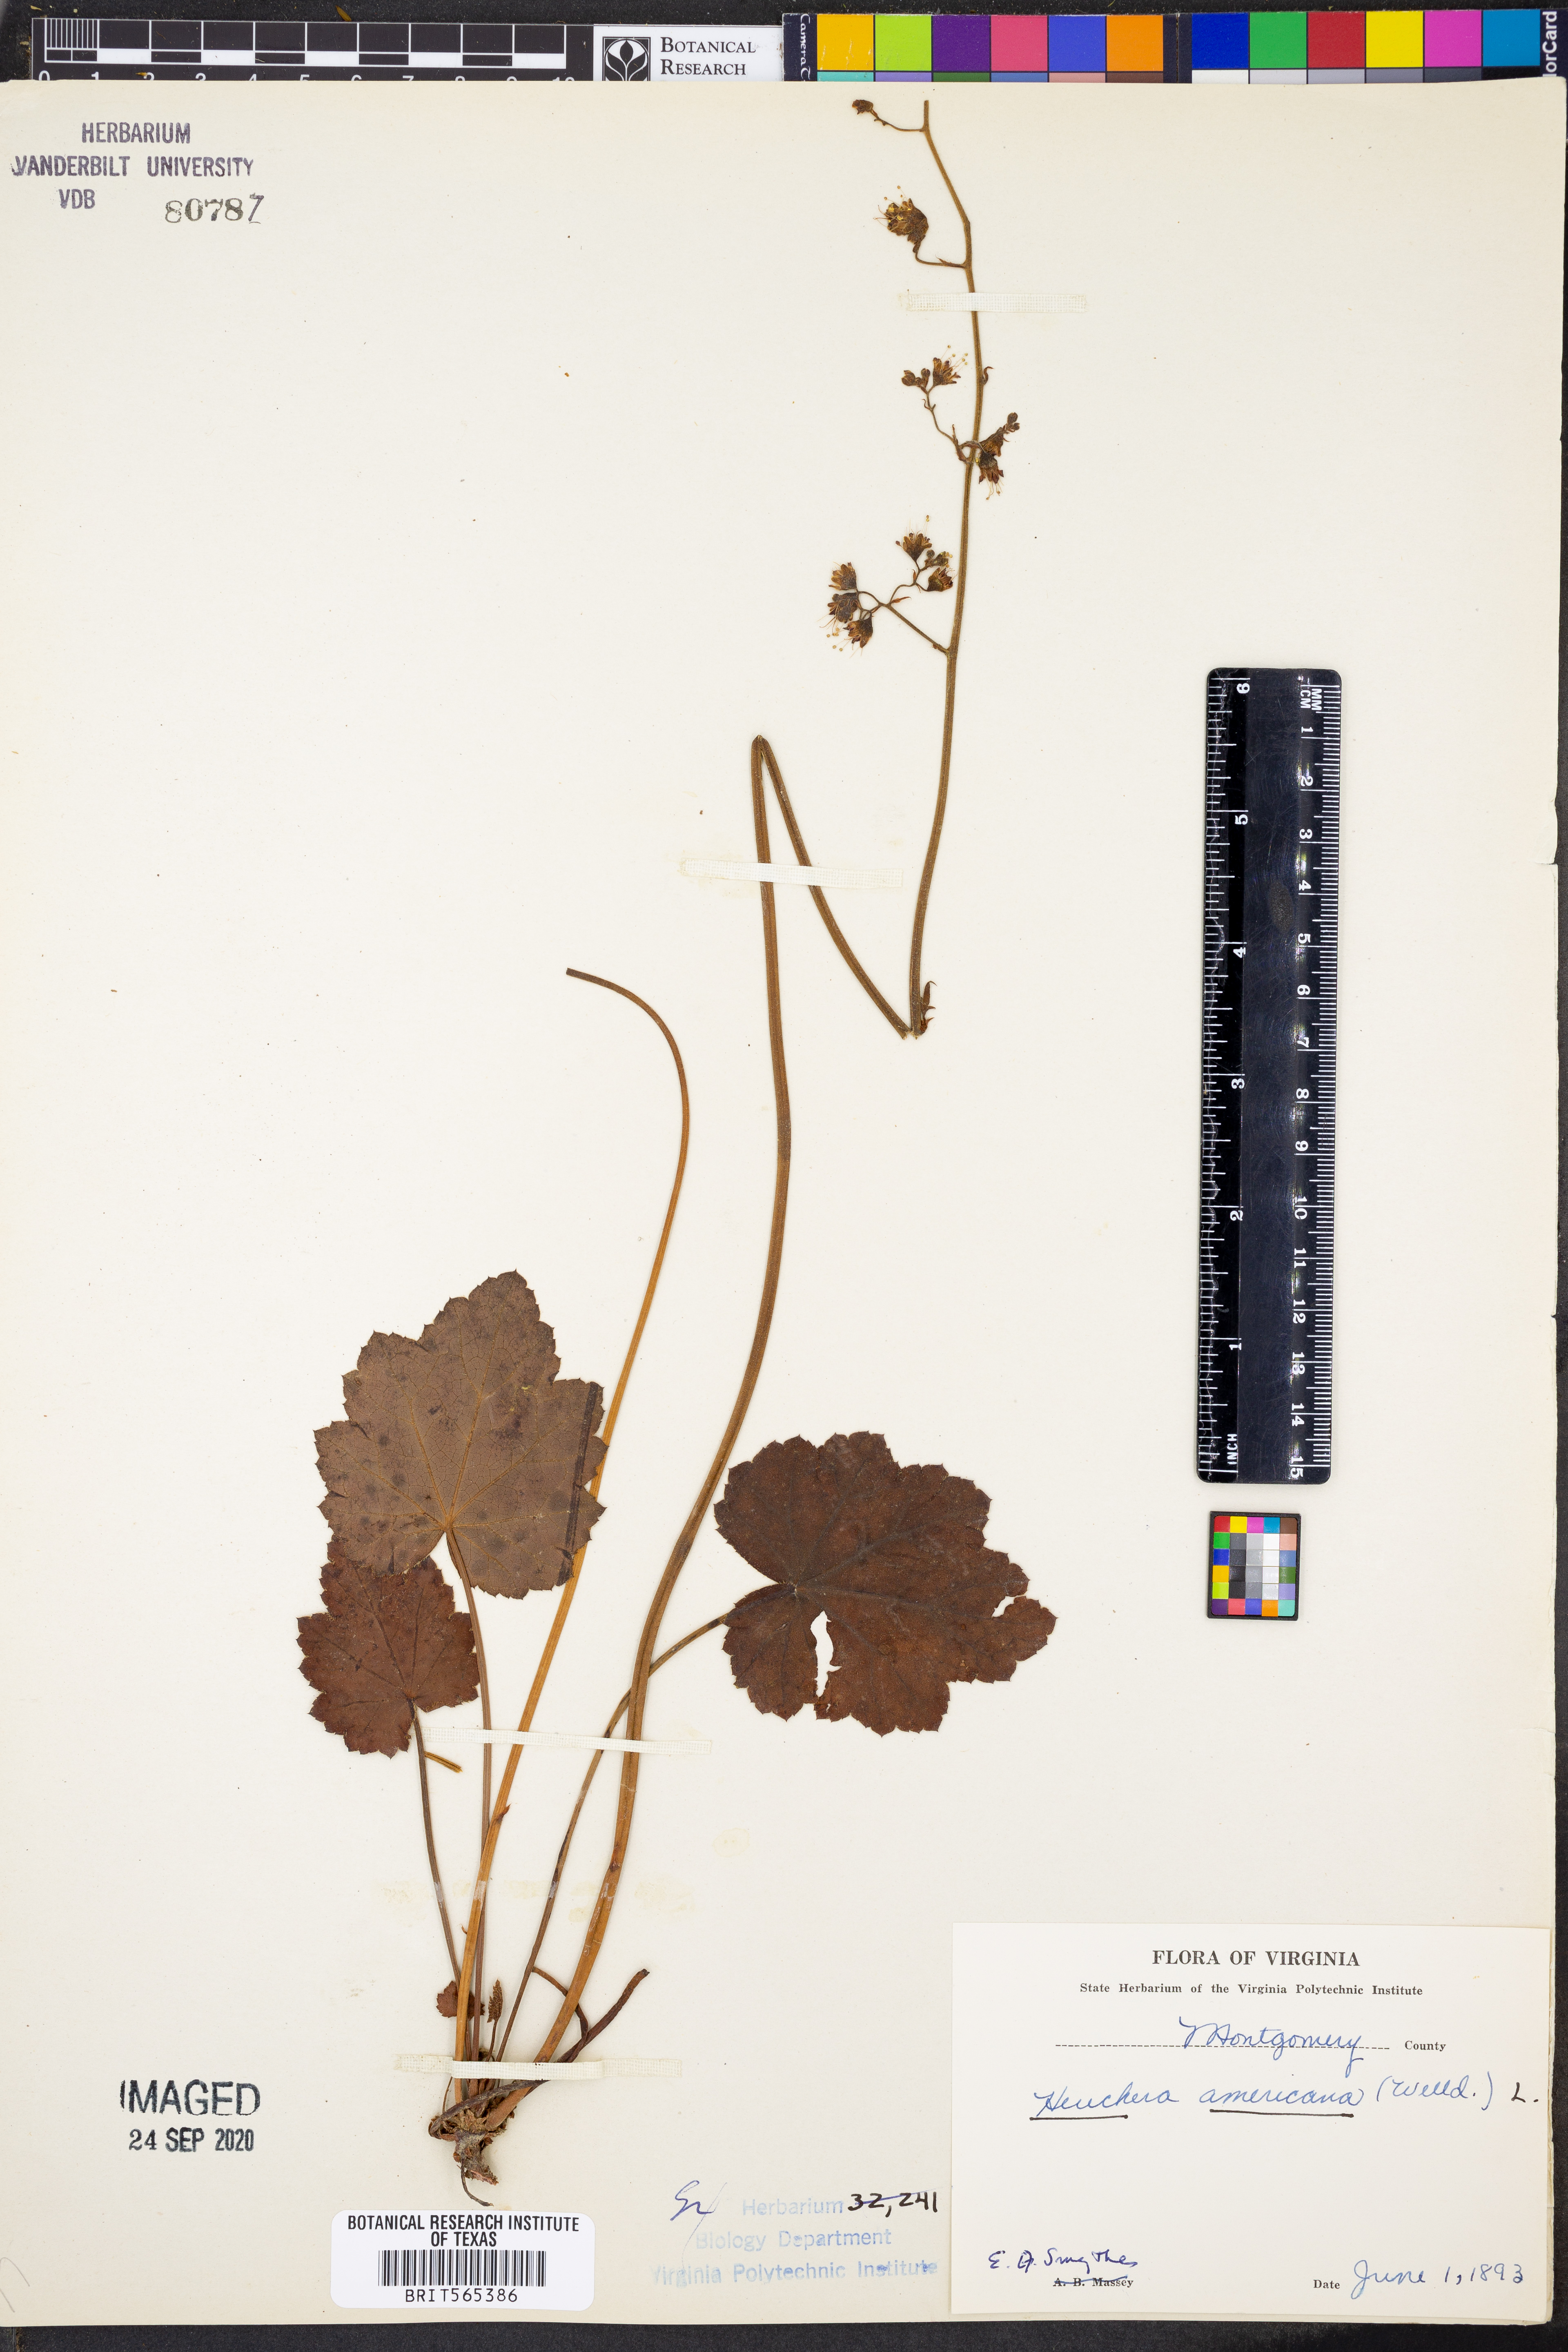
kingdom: Plantae
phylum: Tracheophyta
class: Magnoliopsida
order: Saxifragales
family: Saxifragaceae
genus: Heuchera
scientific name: Heuchera americana
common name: Alumroot
